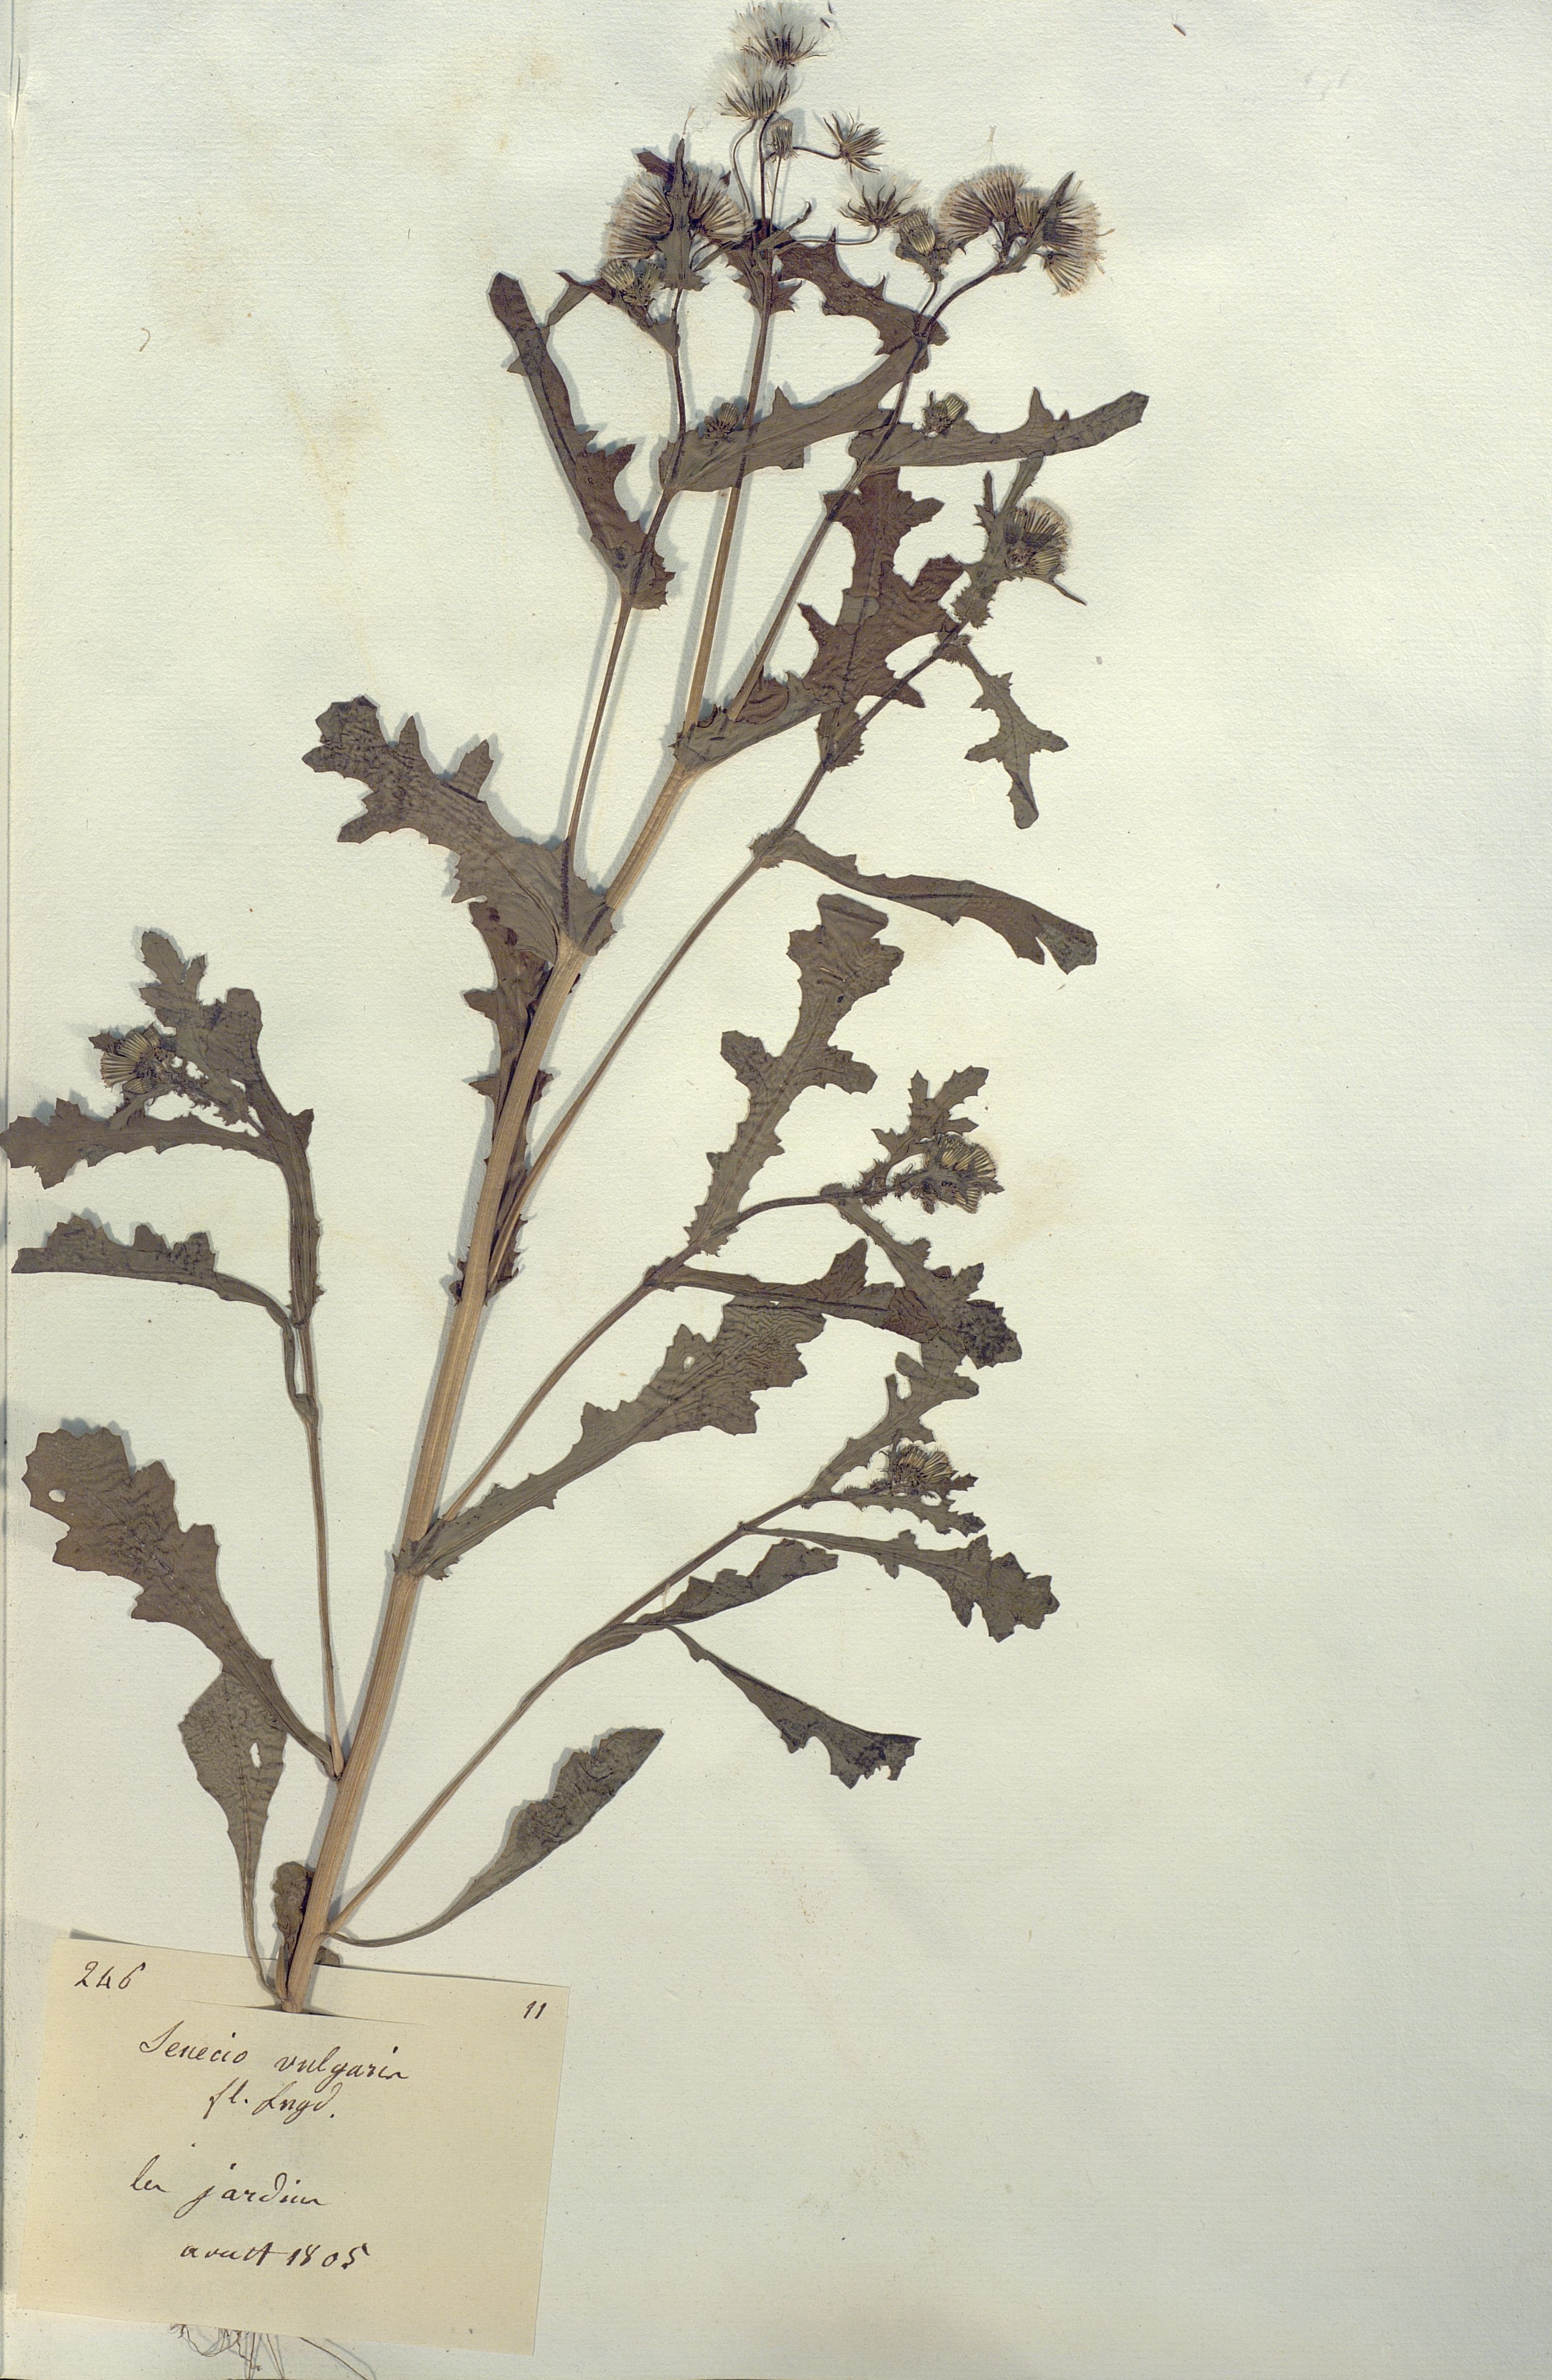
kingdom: Plantae
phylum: Tracheophyta
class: Magnoliopsida
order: Asterales
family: Asteraceae
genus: Senecio
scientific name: Senecio vulgaris
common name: Old-man-in-the-spring
